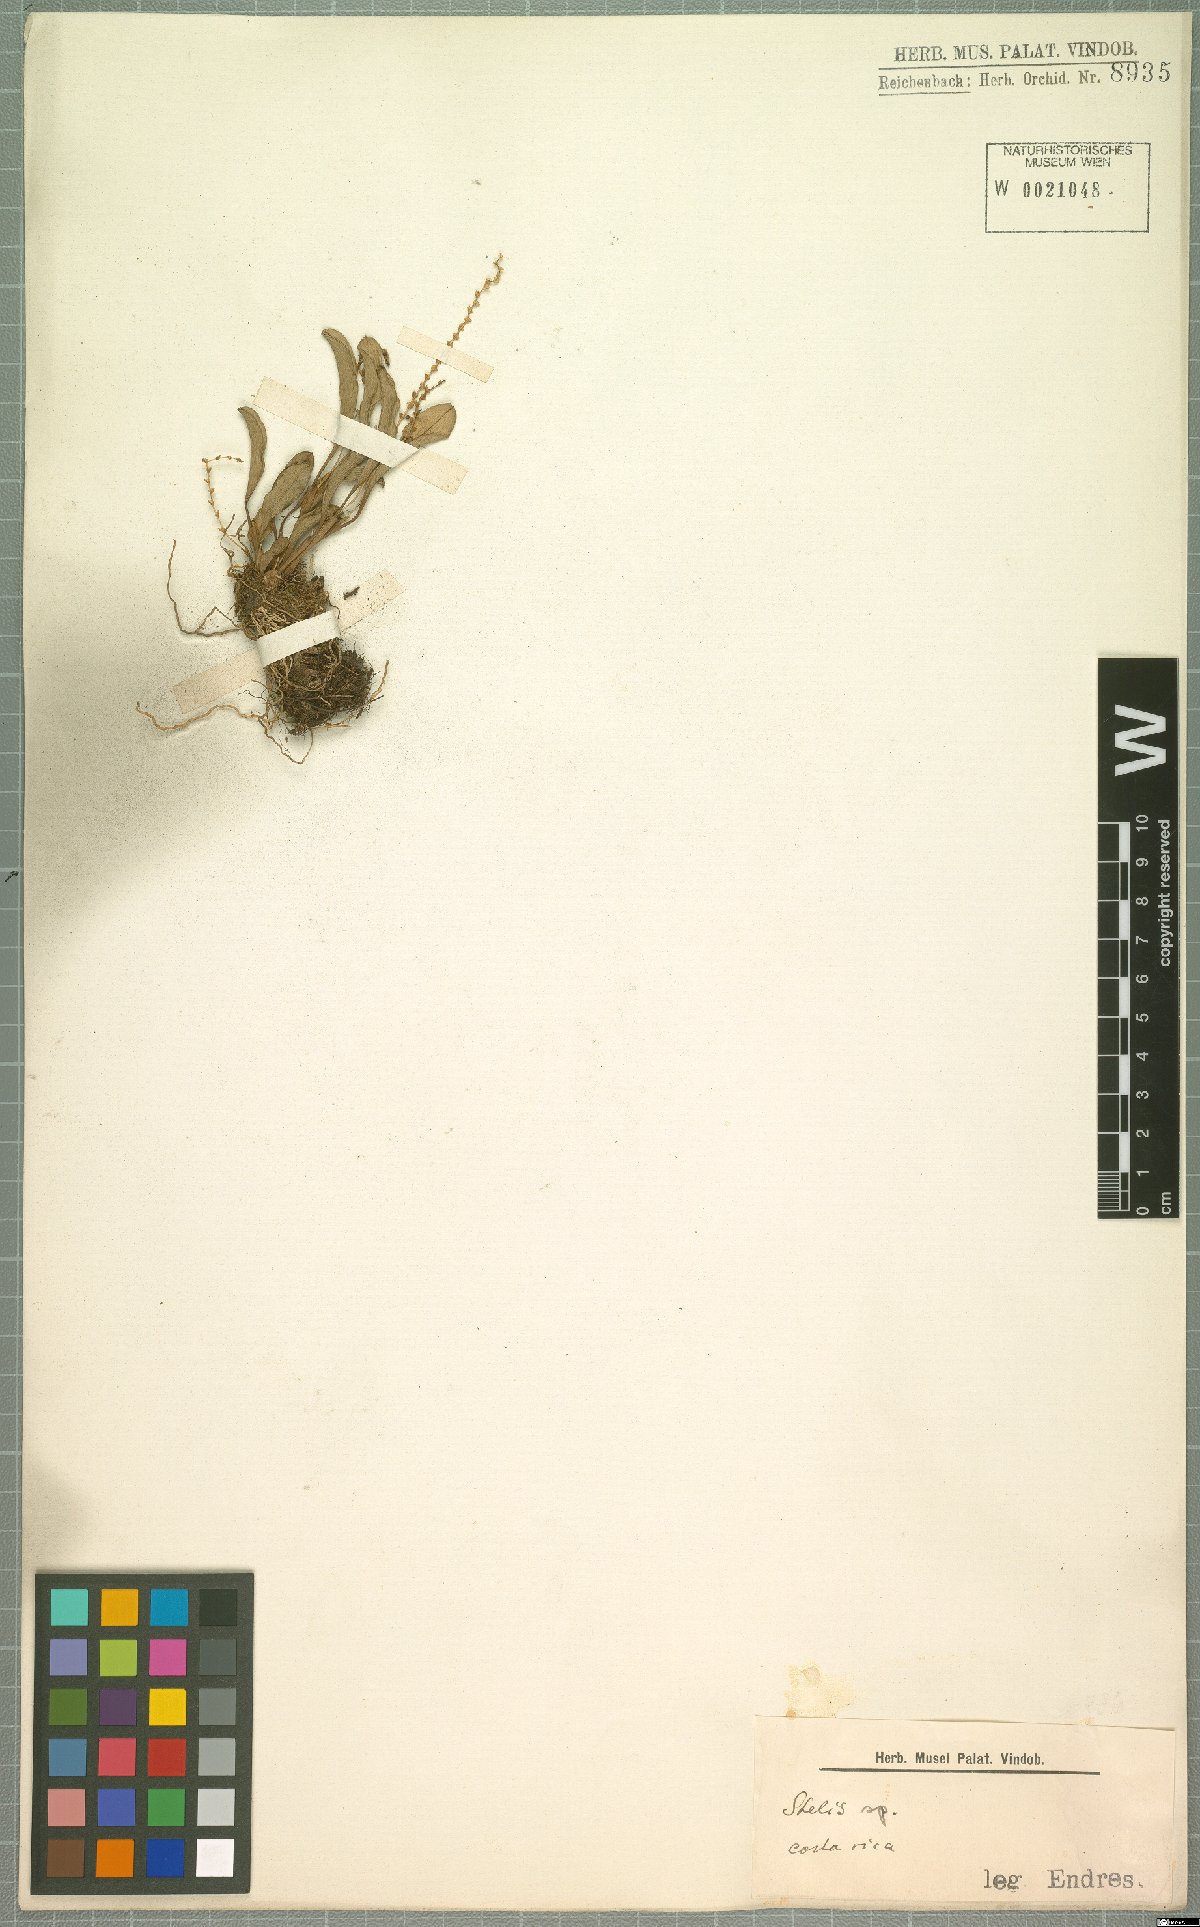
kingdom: Plantae
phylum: Tracheophyta
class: Liliopsida
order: Asparagales
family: Orchidaceae
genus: Stelis
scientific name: Stelis
